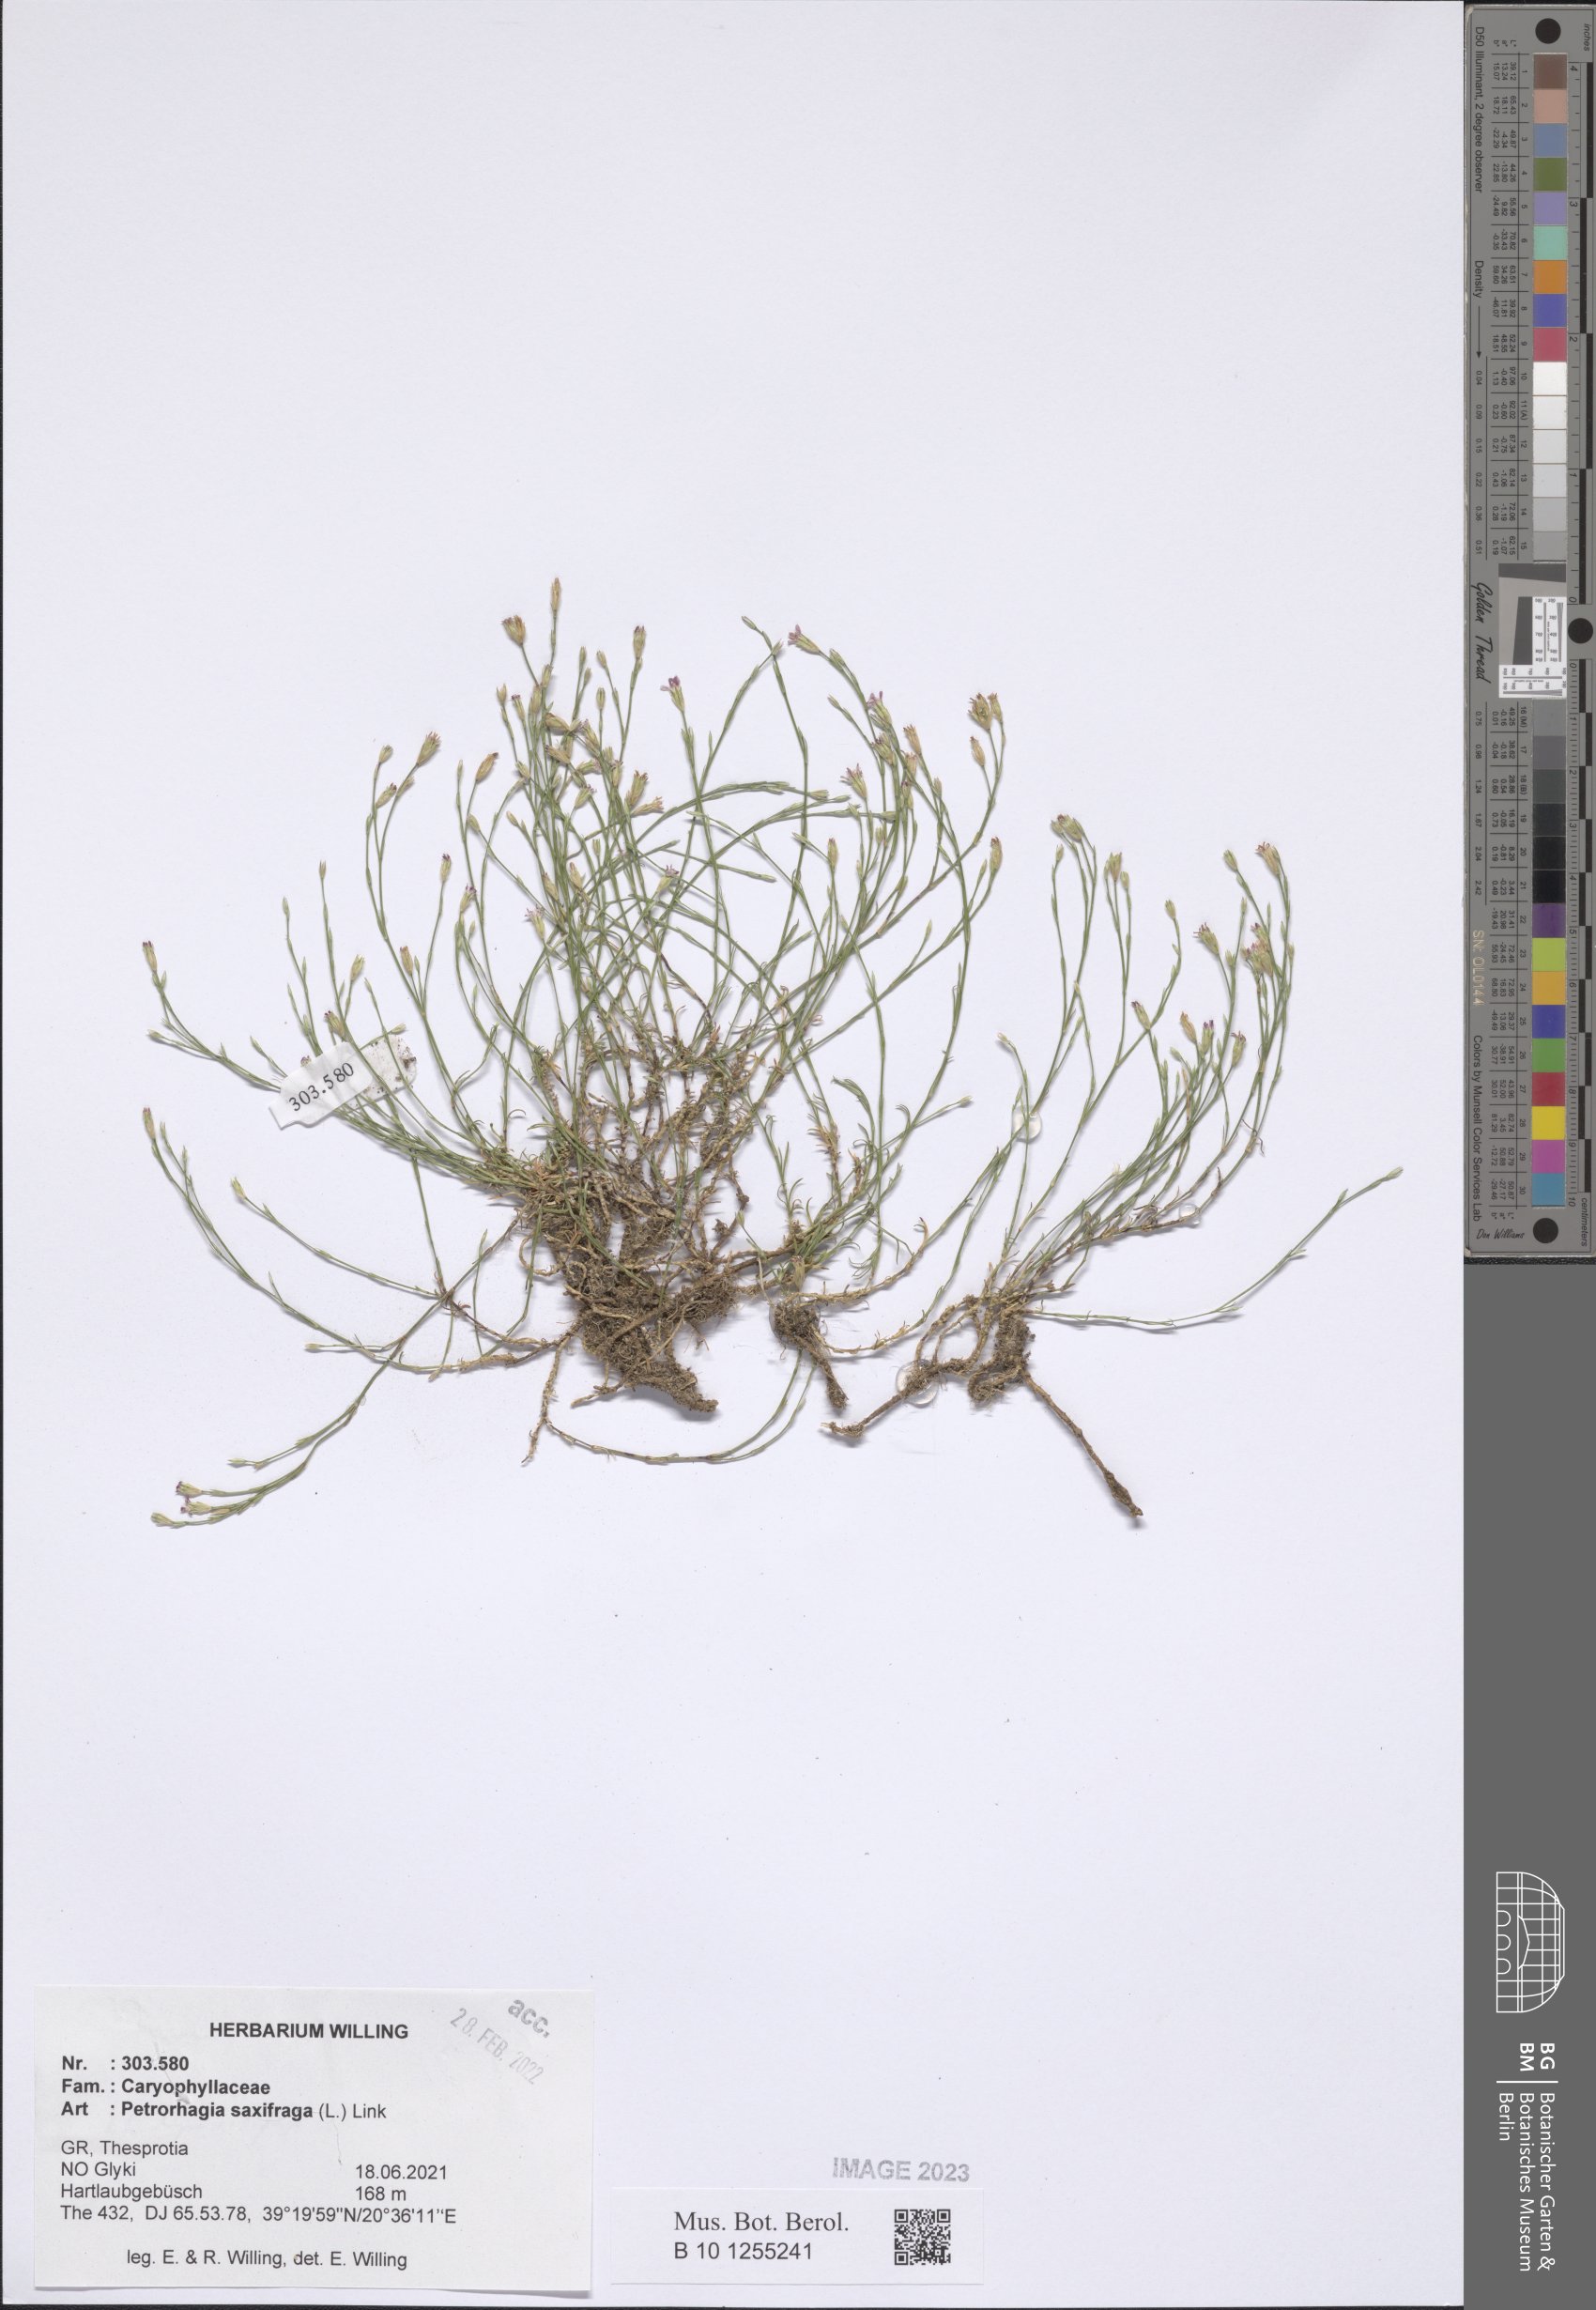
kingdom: Plantae
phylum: Tracheophyta
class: Magnoliopsida
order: Caryophyllales
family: Caryophyllaceae
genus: Petrorhagia
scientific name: Petrorhagia saxifraga
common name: Tunicflower
